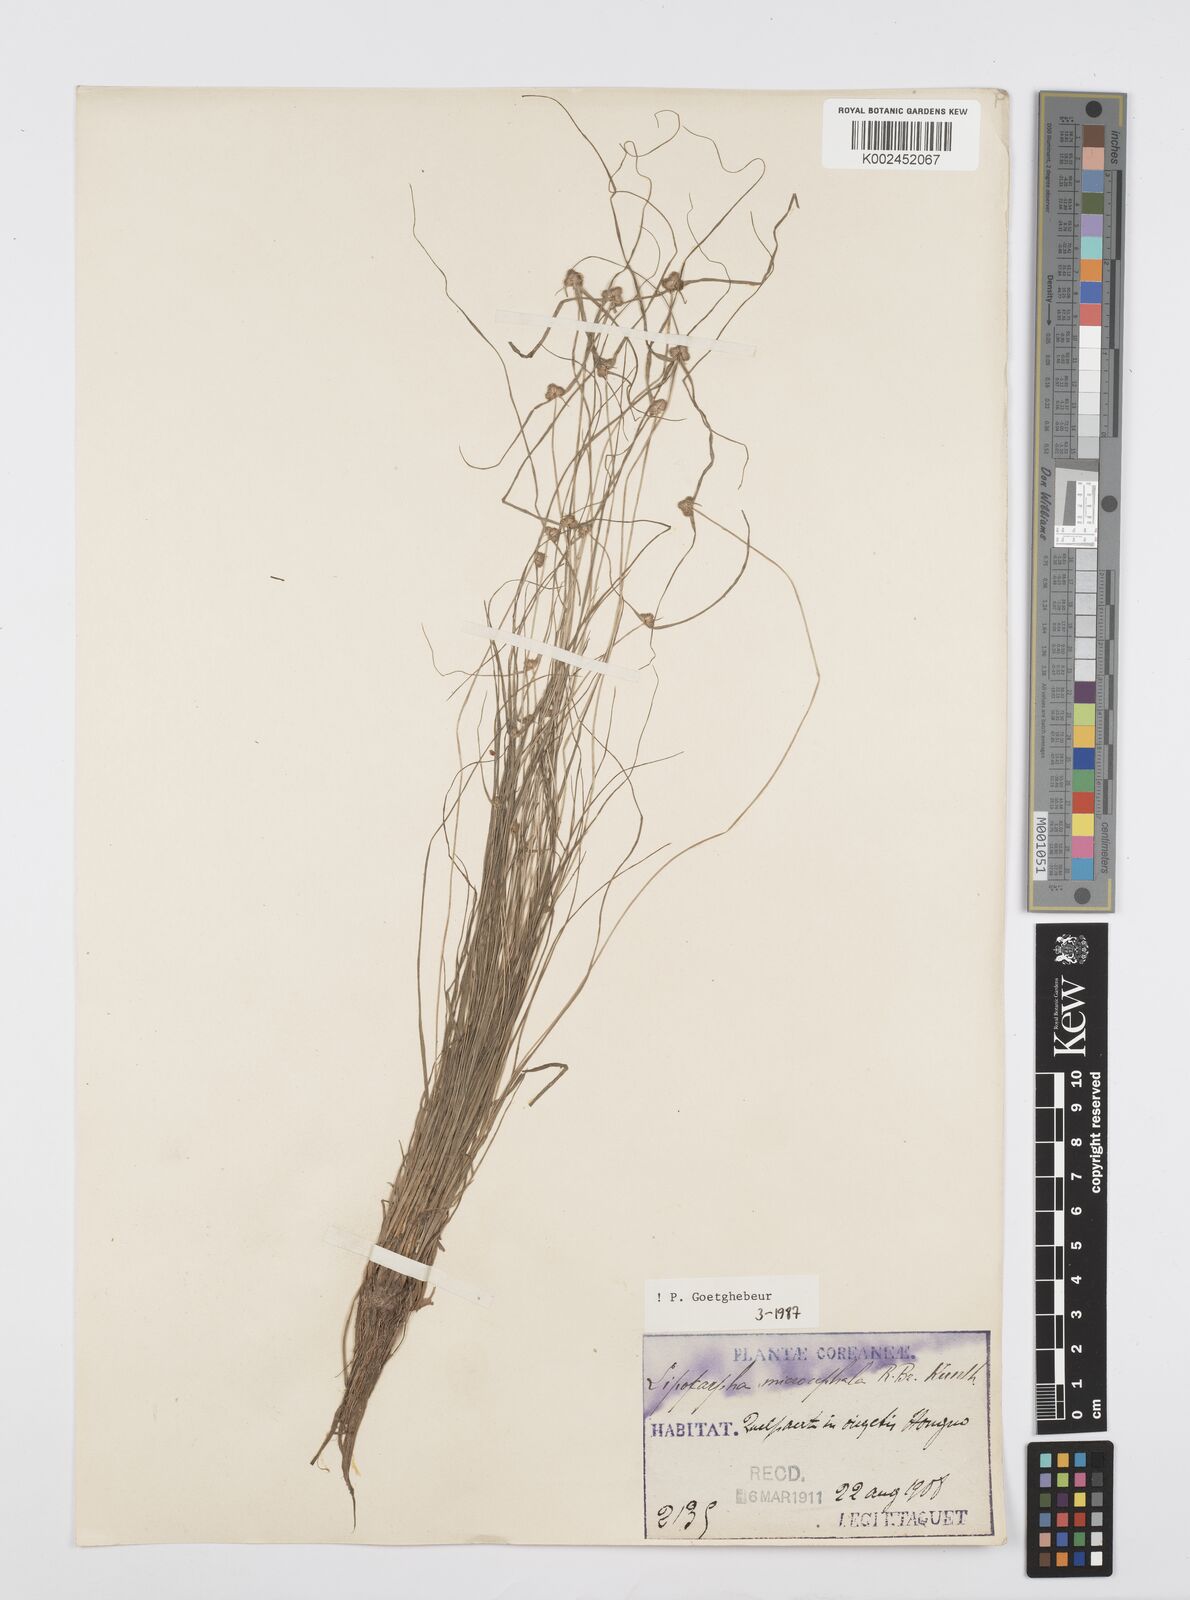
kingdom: Plantae
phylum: Tracheophyta
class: Liliopsida
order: Poales
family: Cyperaceae
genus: Cyperus
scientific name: Cyperus microcephalus
